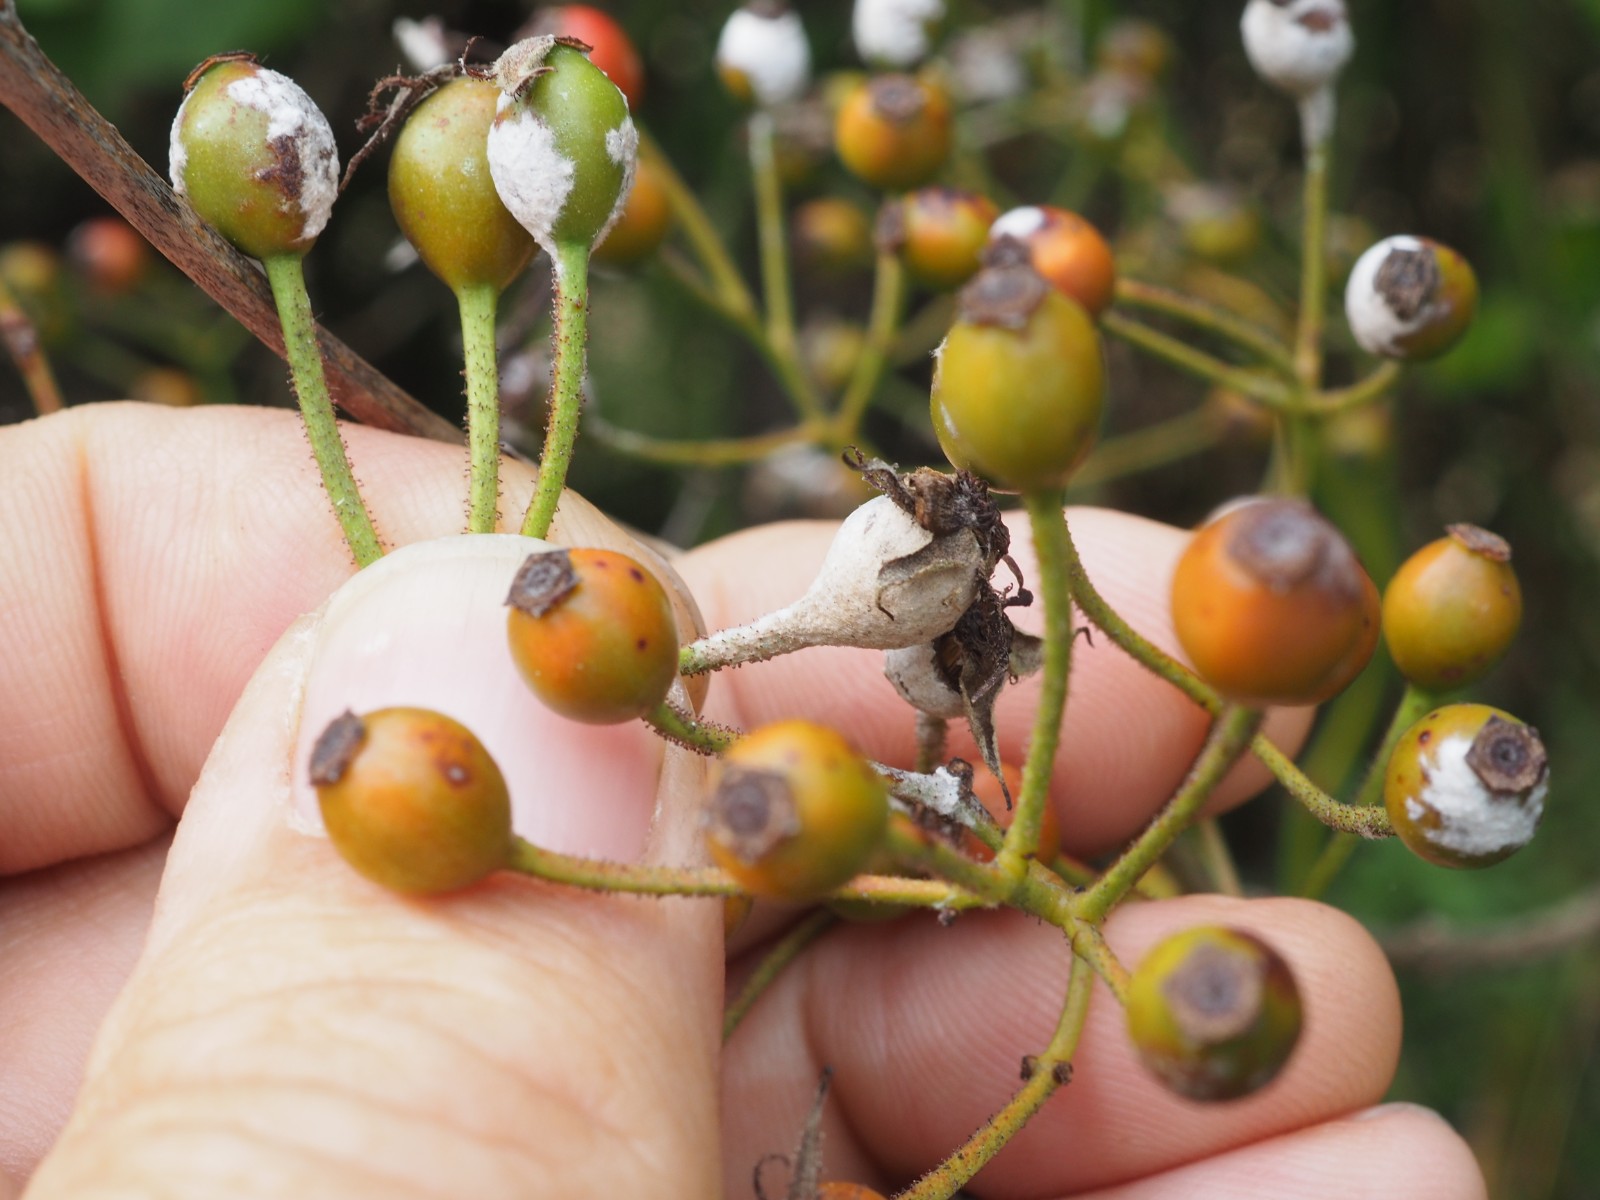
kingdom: Fungi
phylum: Ascomycota
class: Leotiomycetes
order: Helotiales
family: Erysiphaceae
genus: Podosphaera
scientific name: Podosphaera pannosa
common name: Rose mildew
